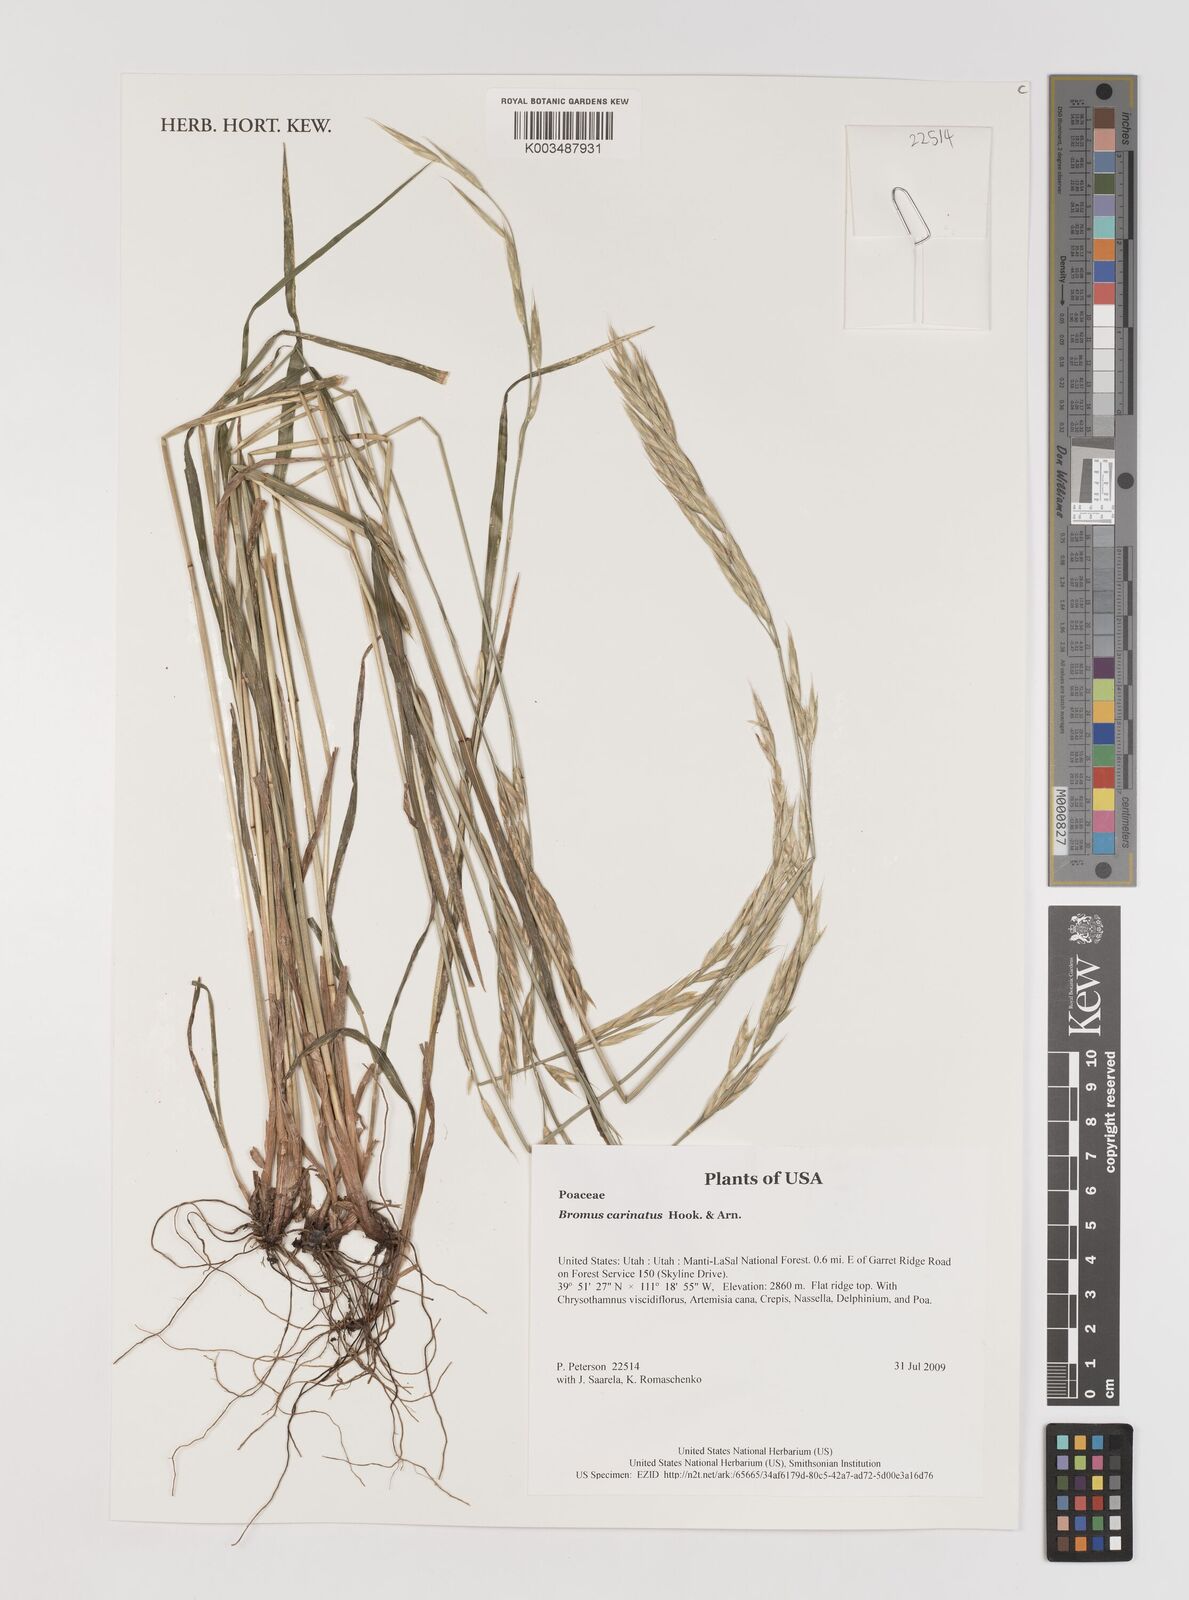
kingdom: Plantae
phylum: Tracheophyta
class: Liliopsida
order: Poales
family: Poaceae
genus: Bromus
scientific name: Bromus carinatus
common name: Mountain brome
